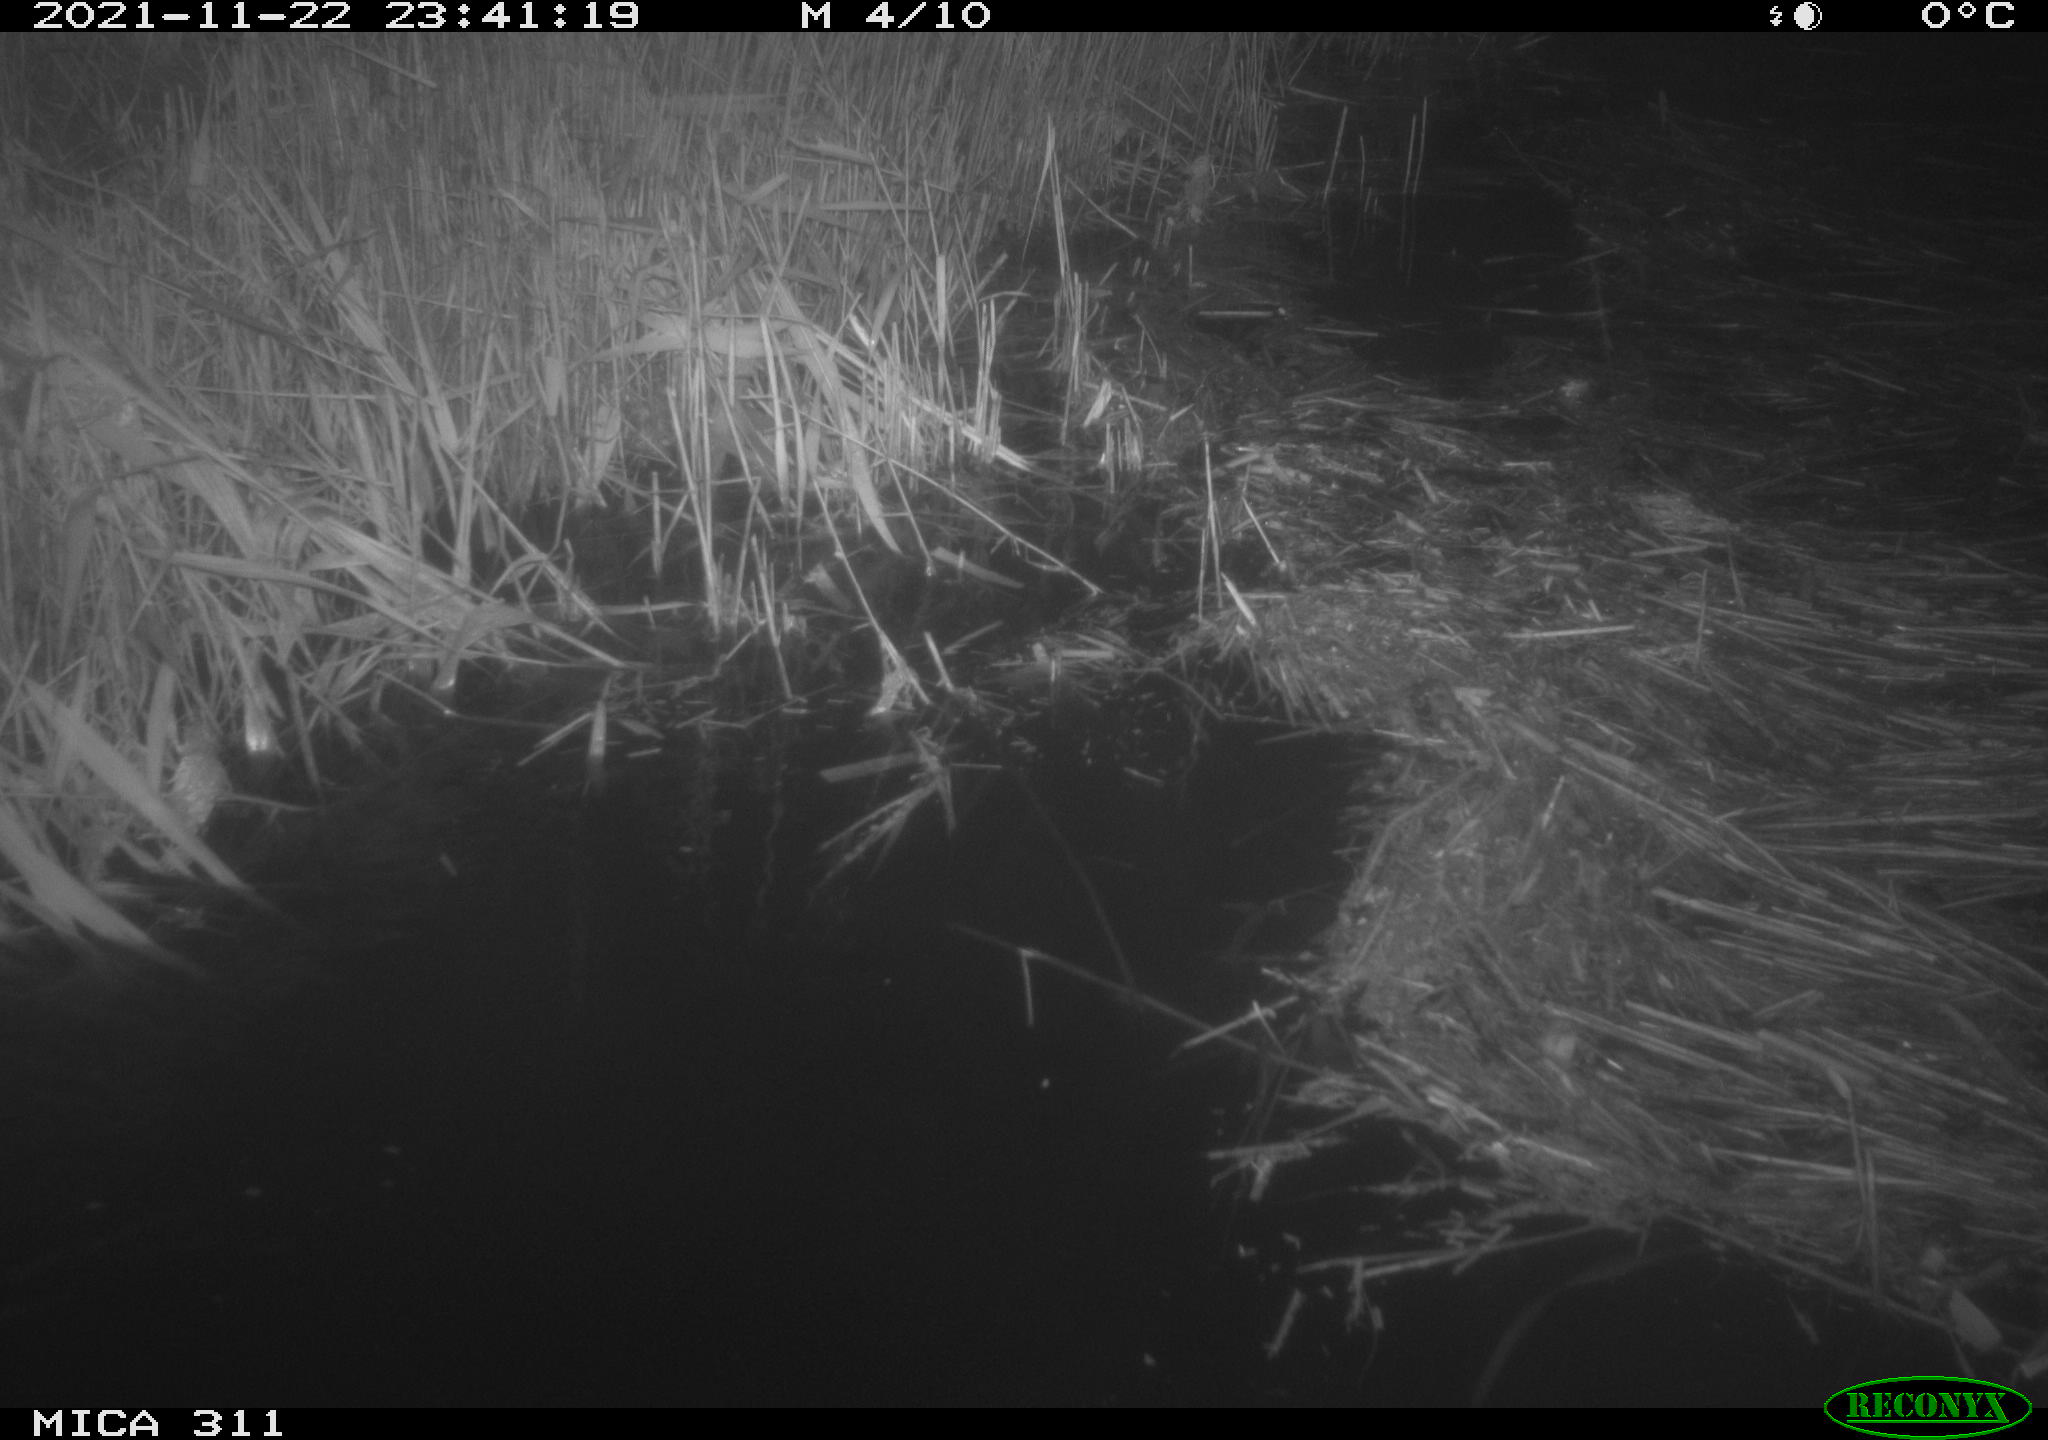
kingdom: Animalia
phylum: Chordata
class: Mammalia
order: Rodentia
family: Muridae
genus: Rattus
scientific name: Rattus norvegicus
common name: Brown rat
